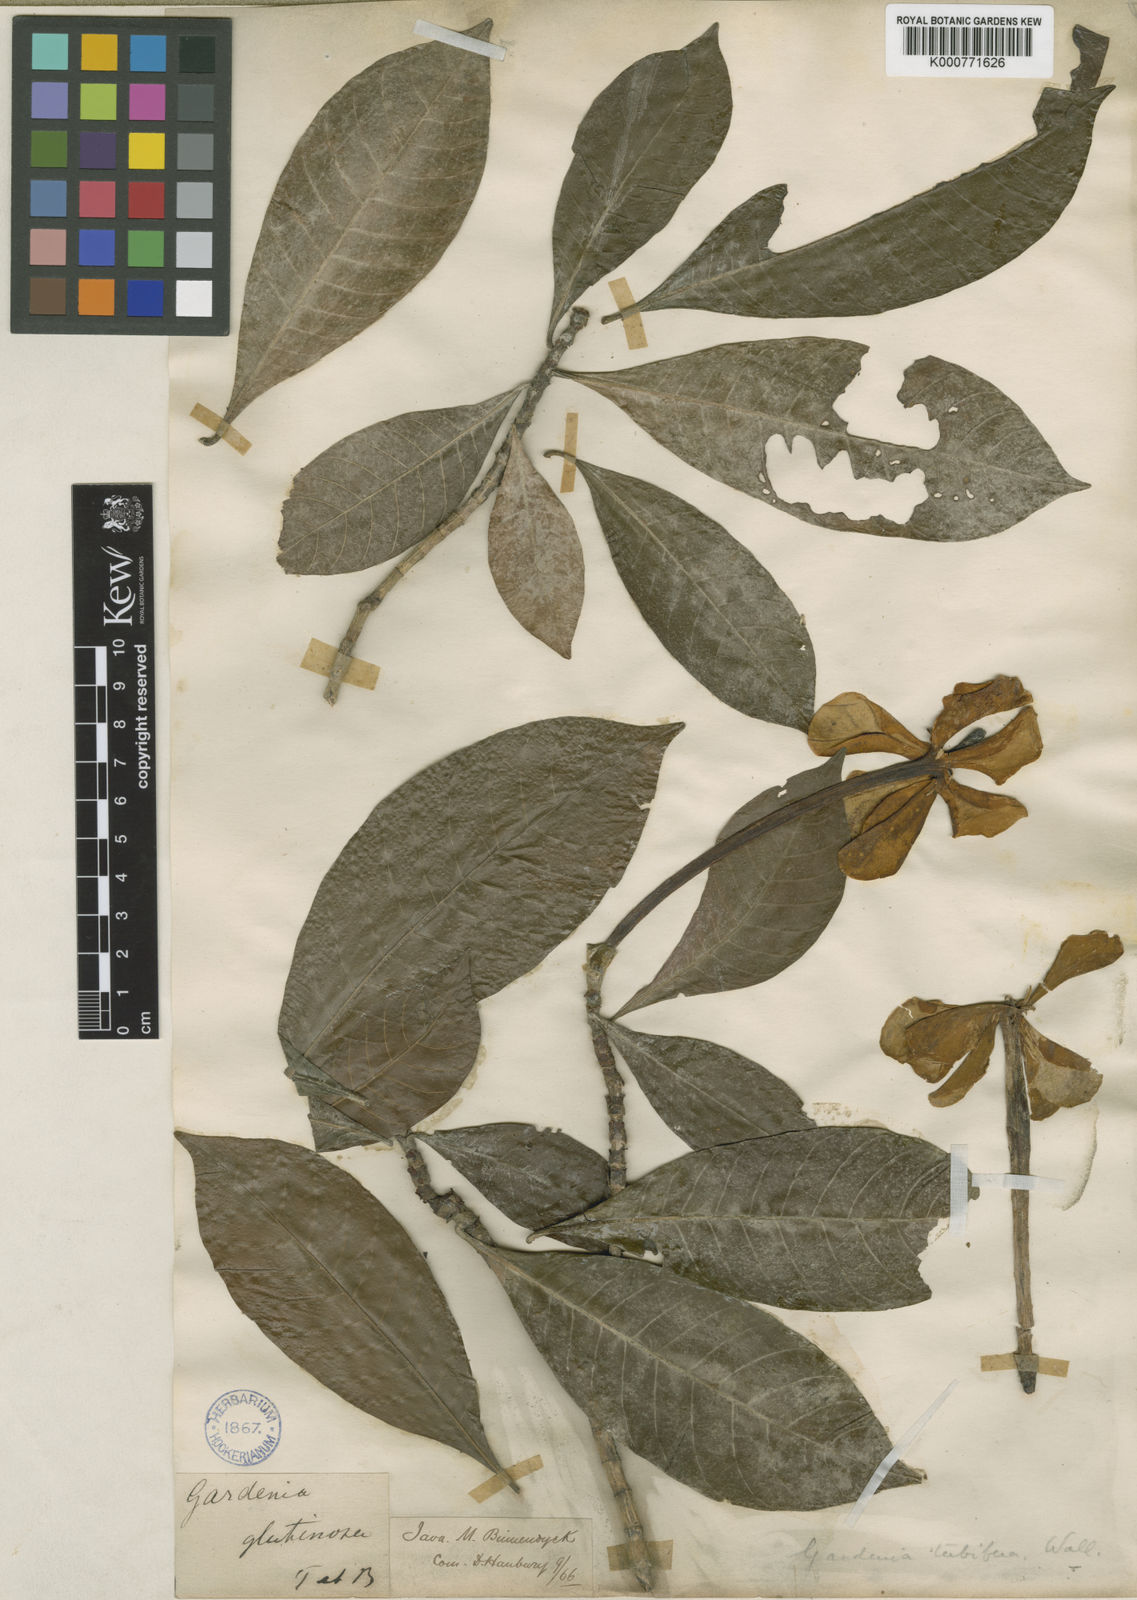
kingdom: Plantae
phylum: Tracheophyta
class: Magnoliopsida
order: Gentianales
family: Rubiaceae
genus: Gardenia
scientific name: Gardenia
